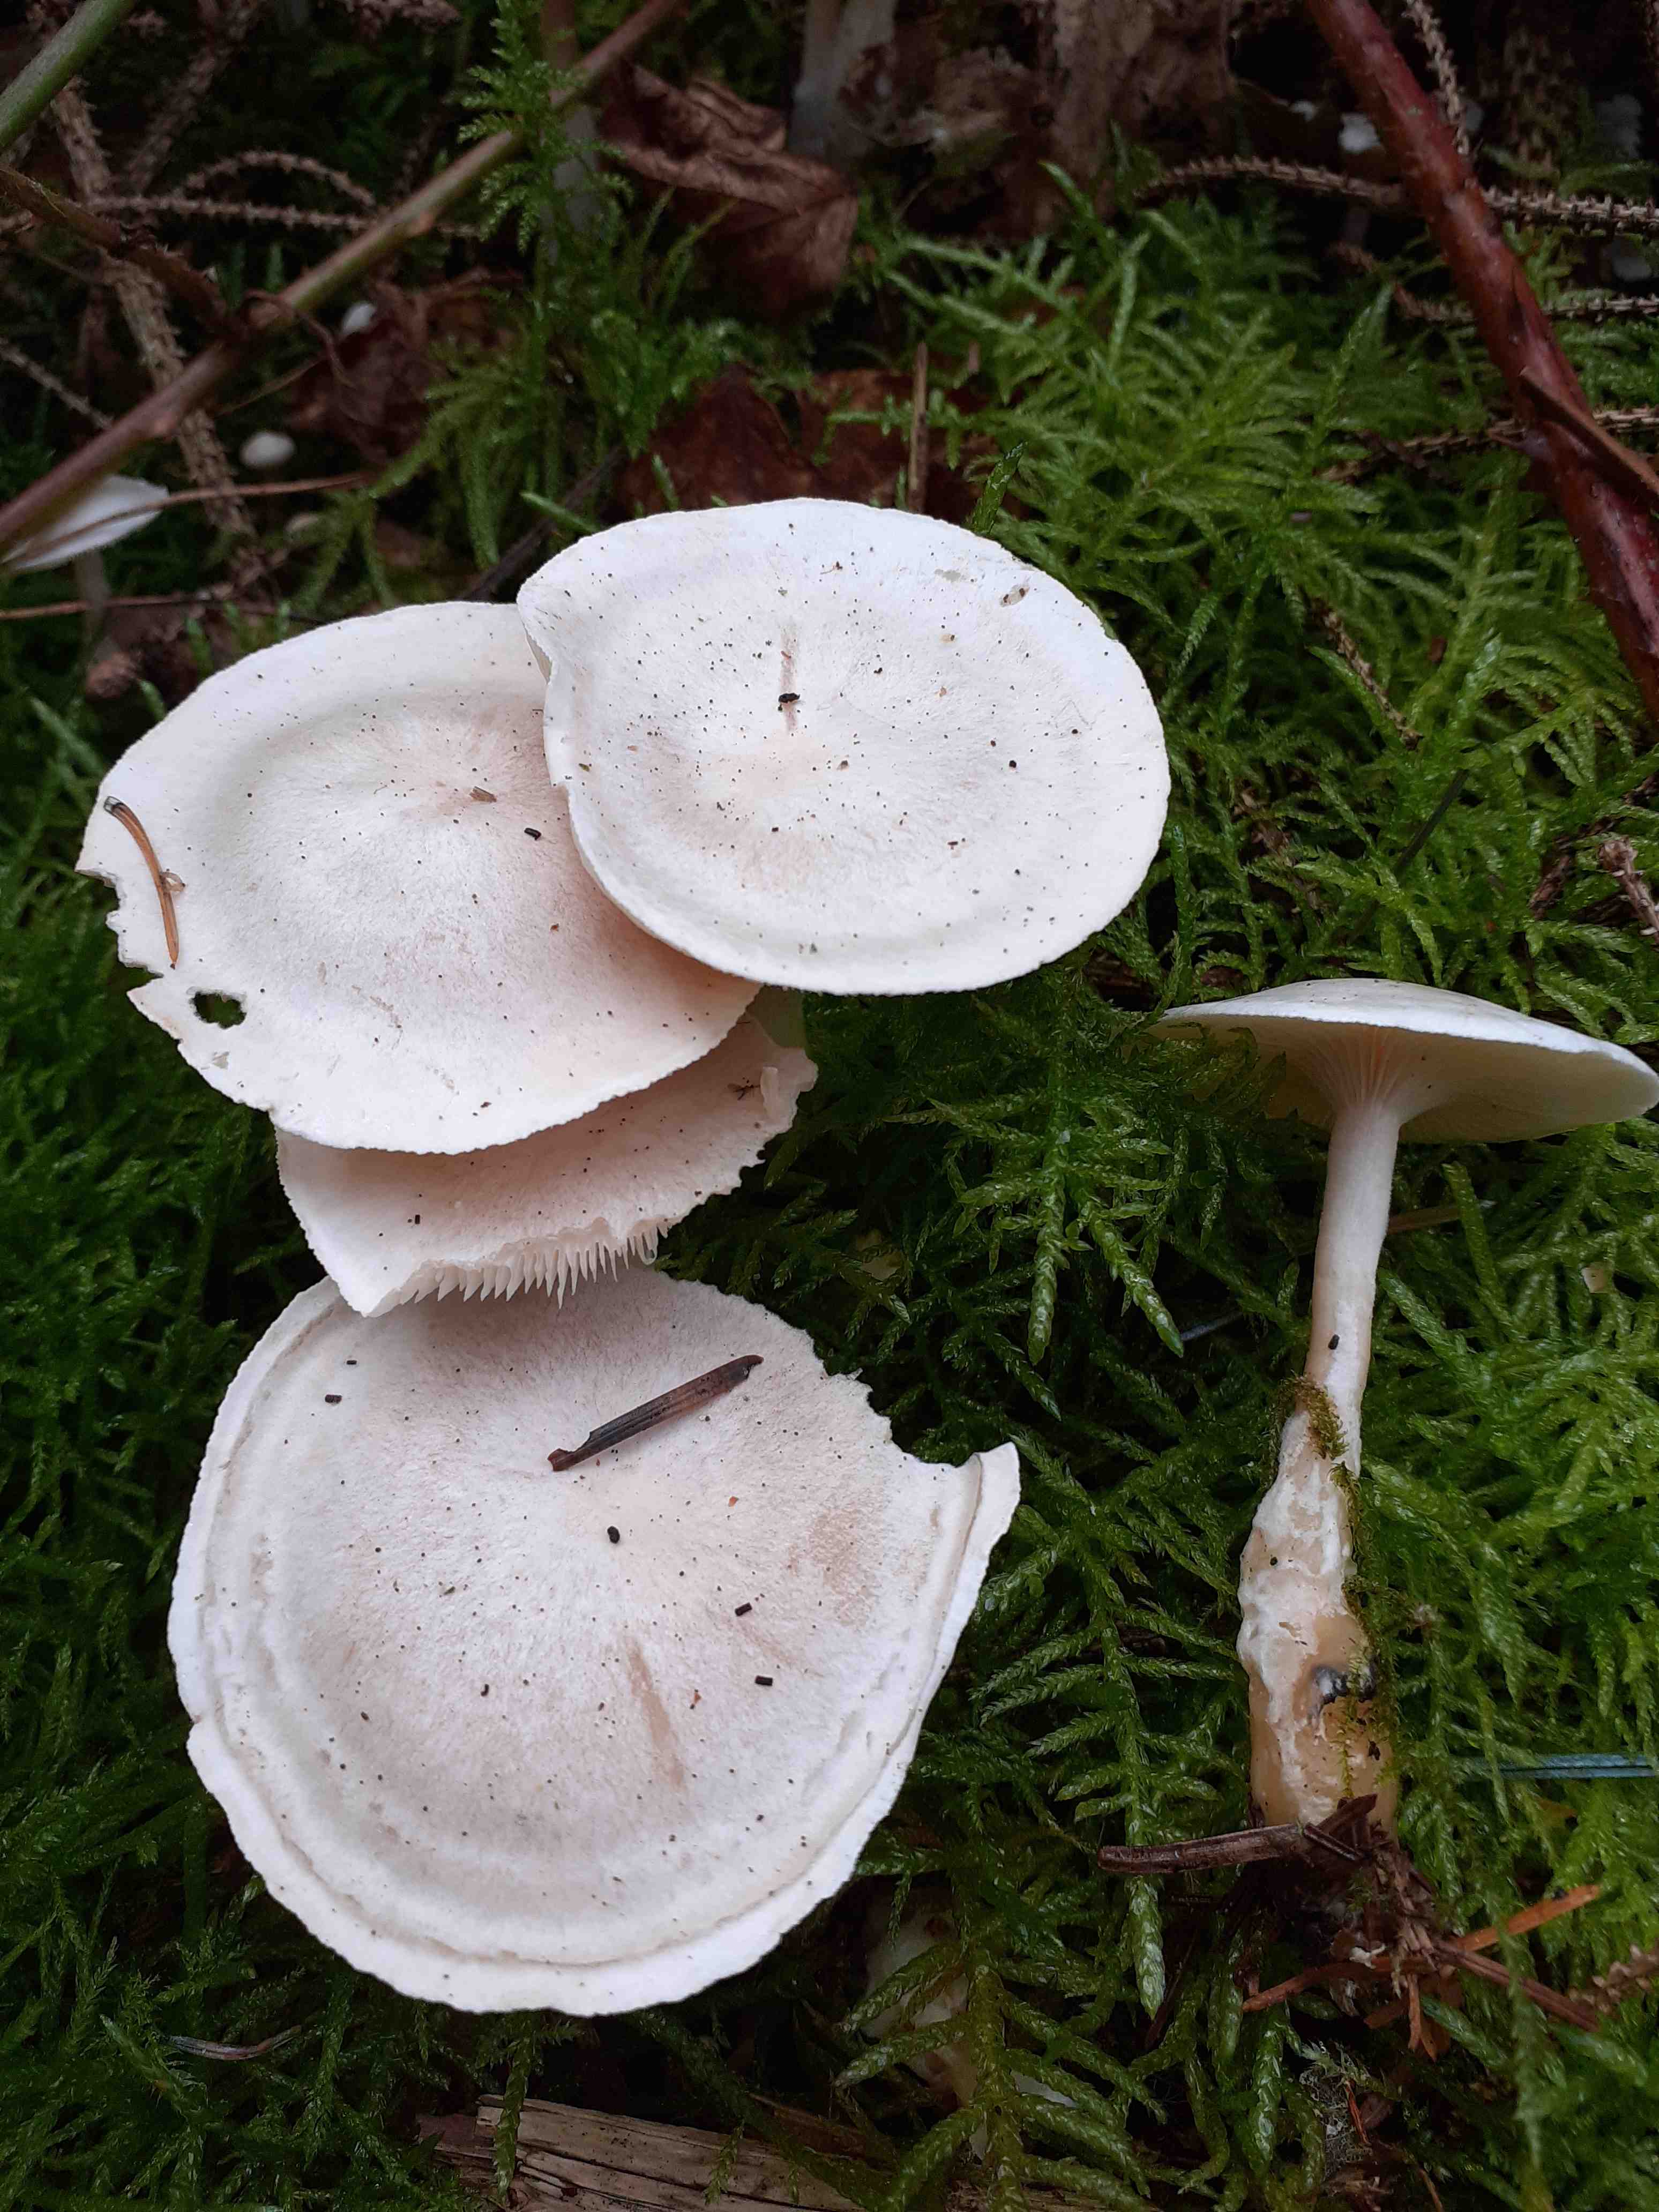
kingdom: Fungi
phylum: Basidiomycota
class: Agaricomycetes
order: Agaricales
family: Tricholomataceae
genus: Clitocybe
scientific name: Clitocybe phyllophila
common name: løv-tragthat
